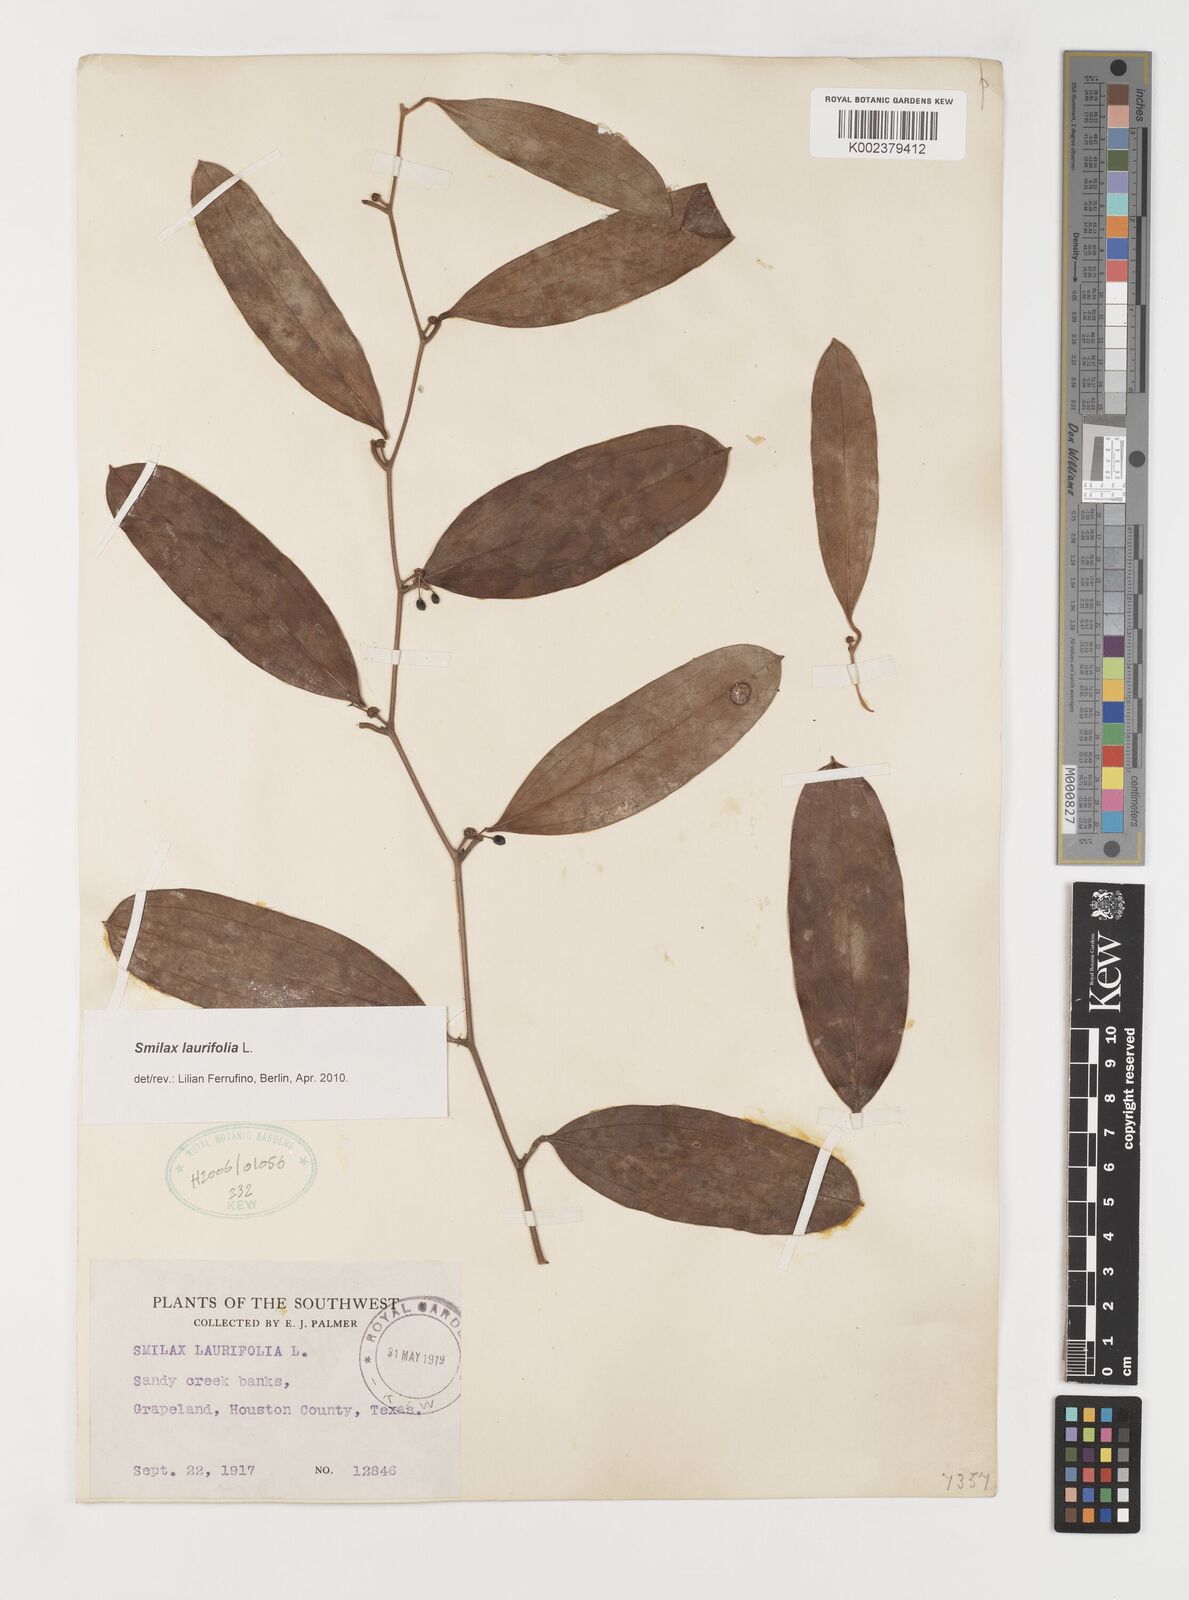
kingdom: Plantae
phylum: Tracheophyta
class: Liliopsida
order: Liliales
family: Smilacaceae
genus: Smilax
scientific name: Smilax laurifolia
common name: Bamboovine
